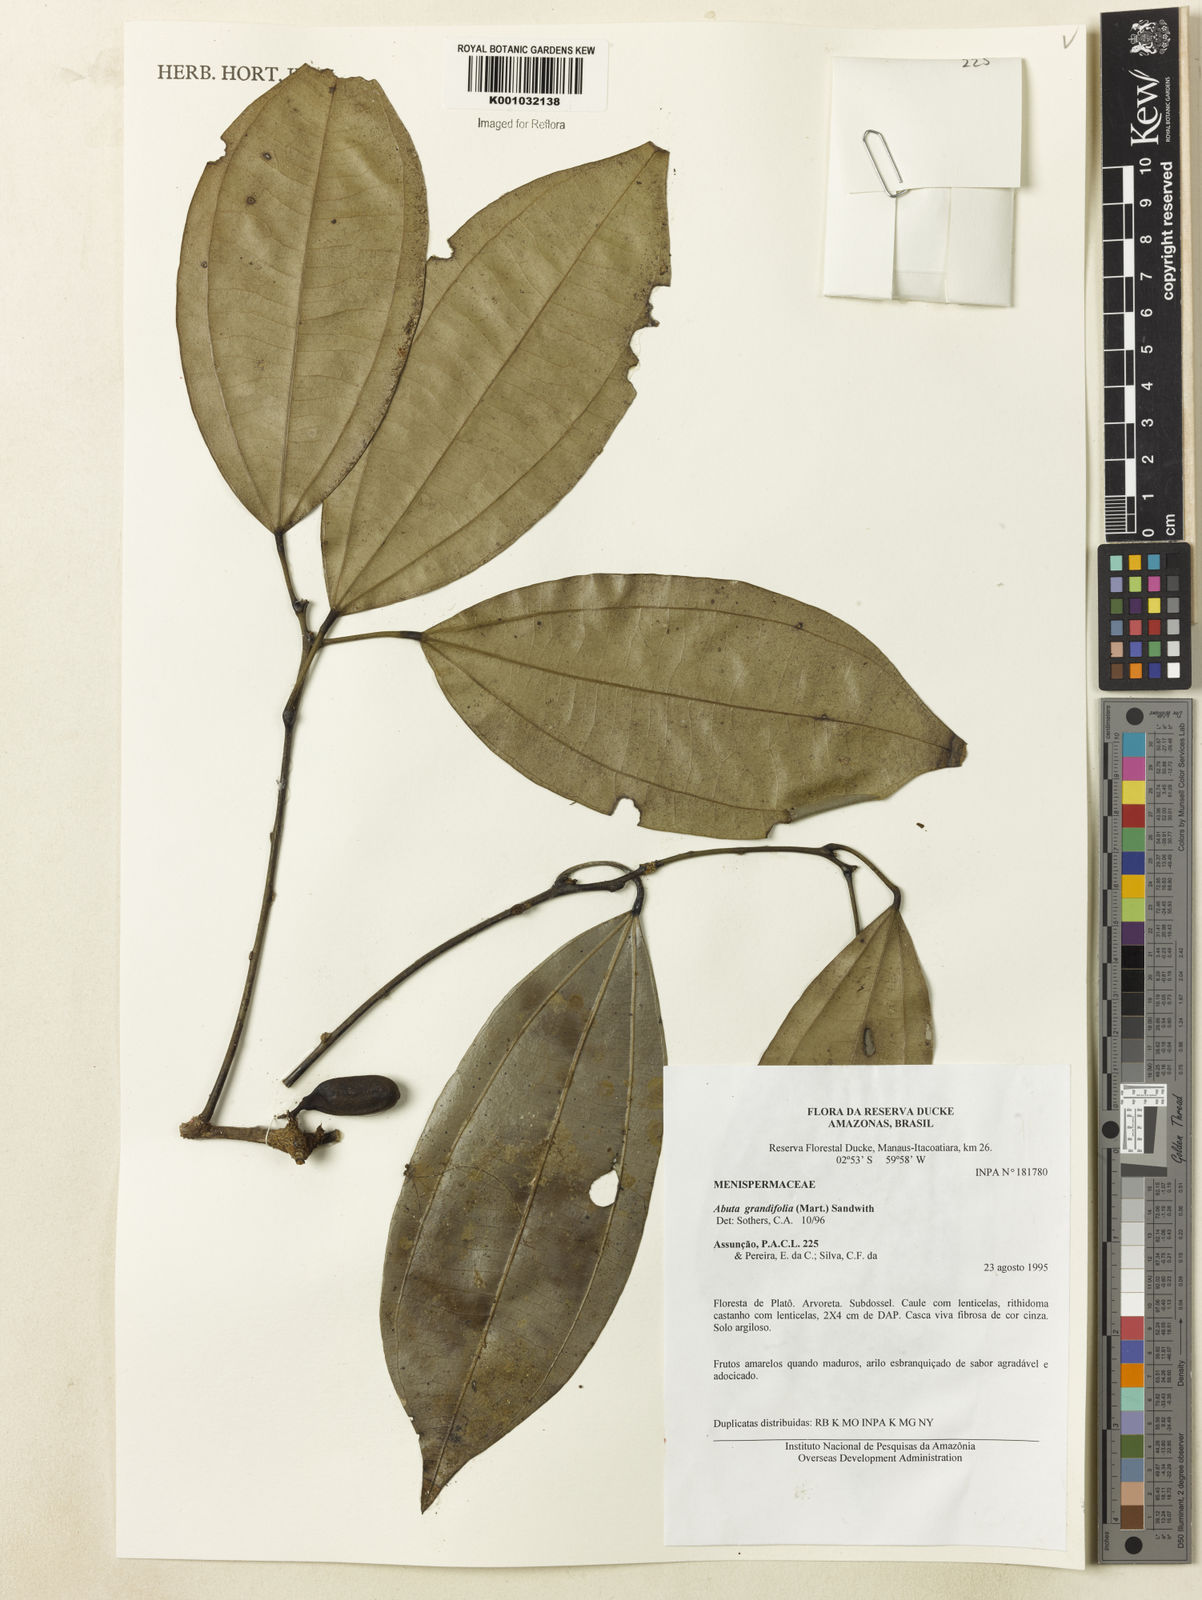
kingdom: Plantae
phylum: Tracheophyta
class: Magnoliopsida
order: Ranunculales
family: Menispermaceae
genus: Abuta
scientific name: Abuta grandifolia
